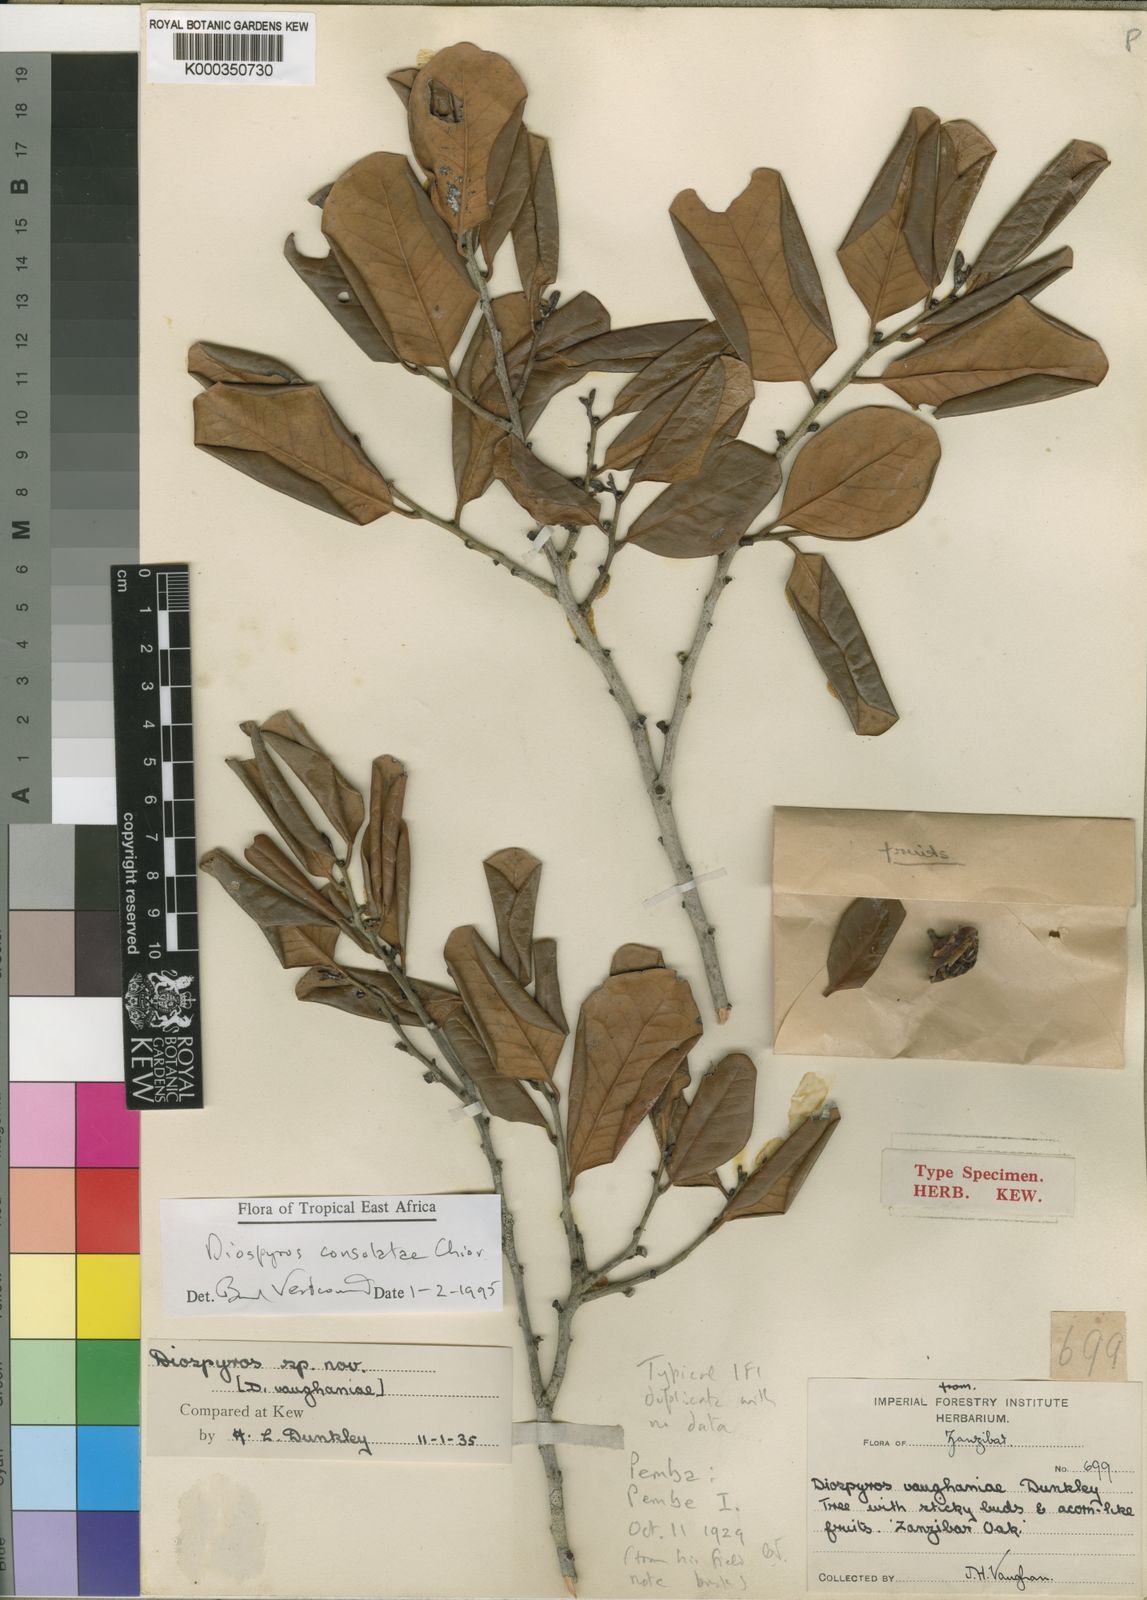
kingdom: Plantae
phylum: Tracheophyta
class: Magnoliopsida
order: Ericales
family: Ebenaceae
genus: Diospyros
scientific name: Diospyros consolatae
